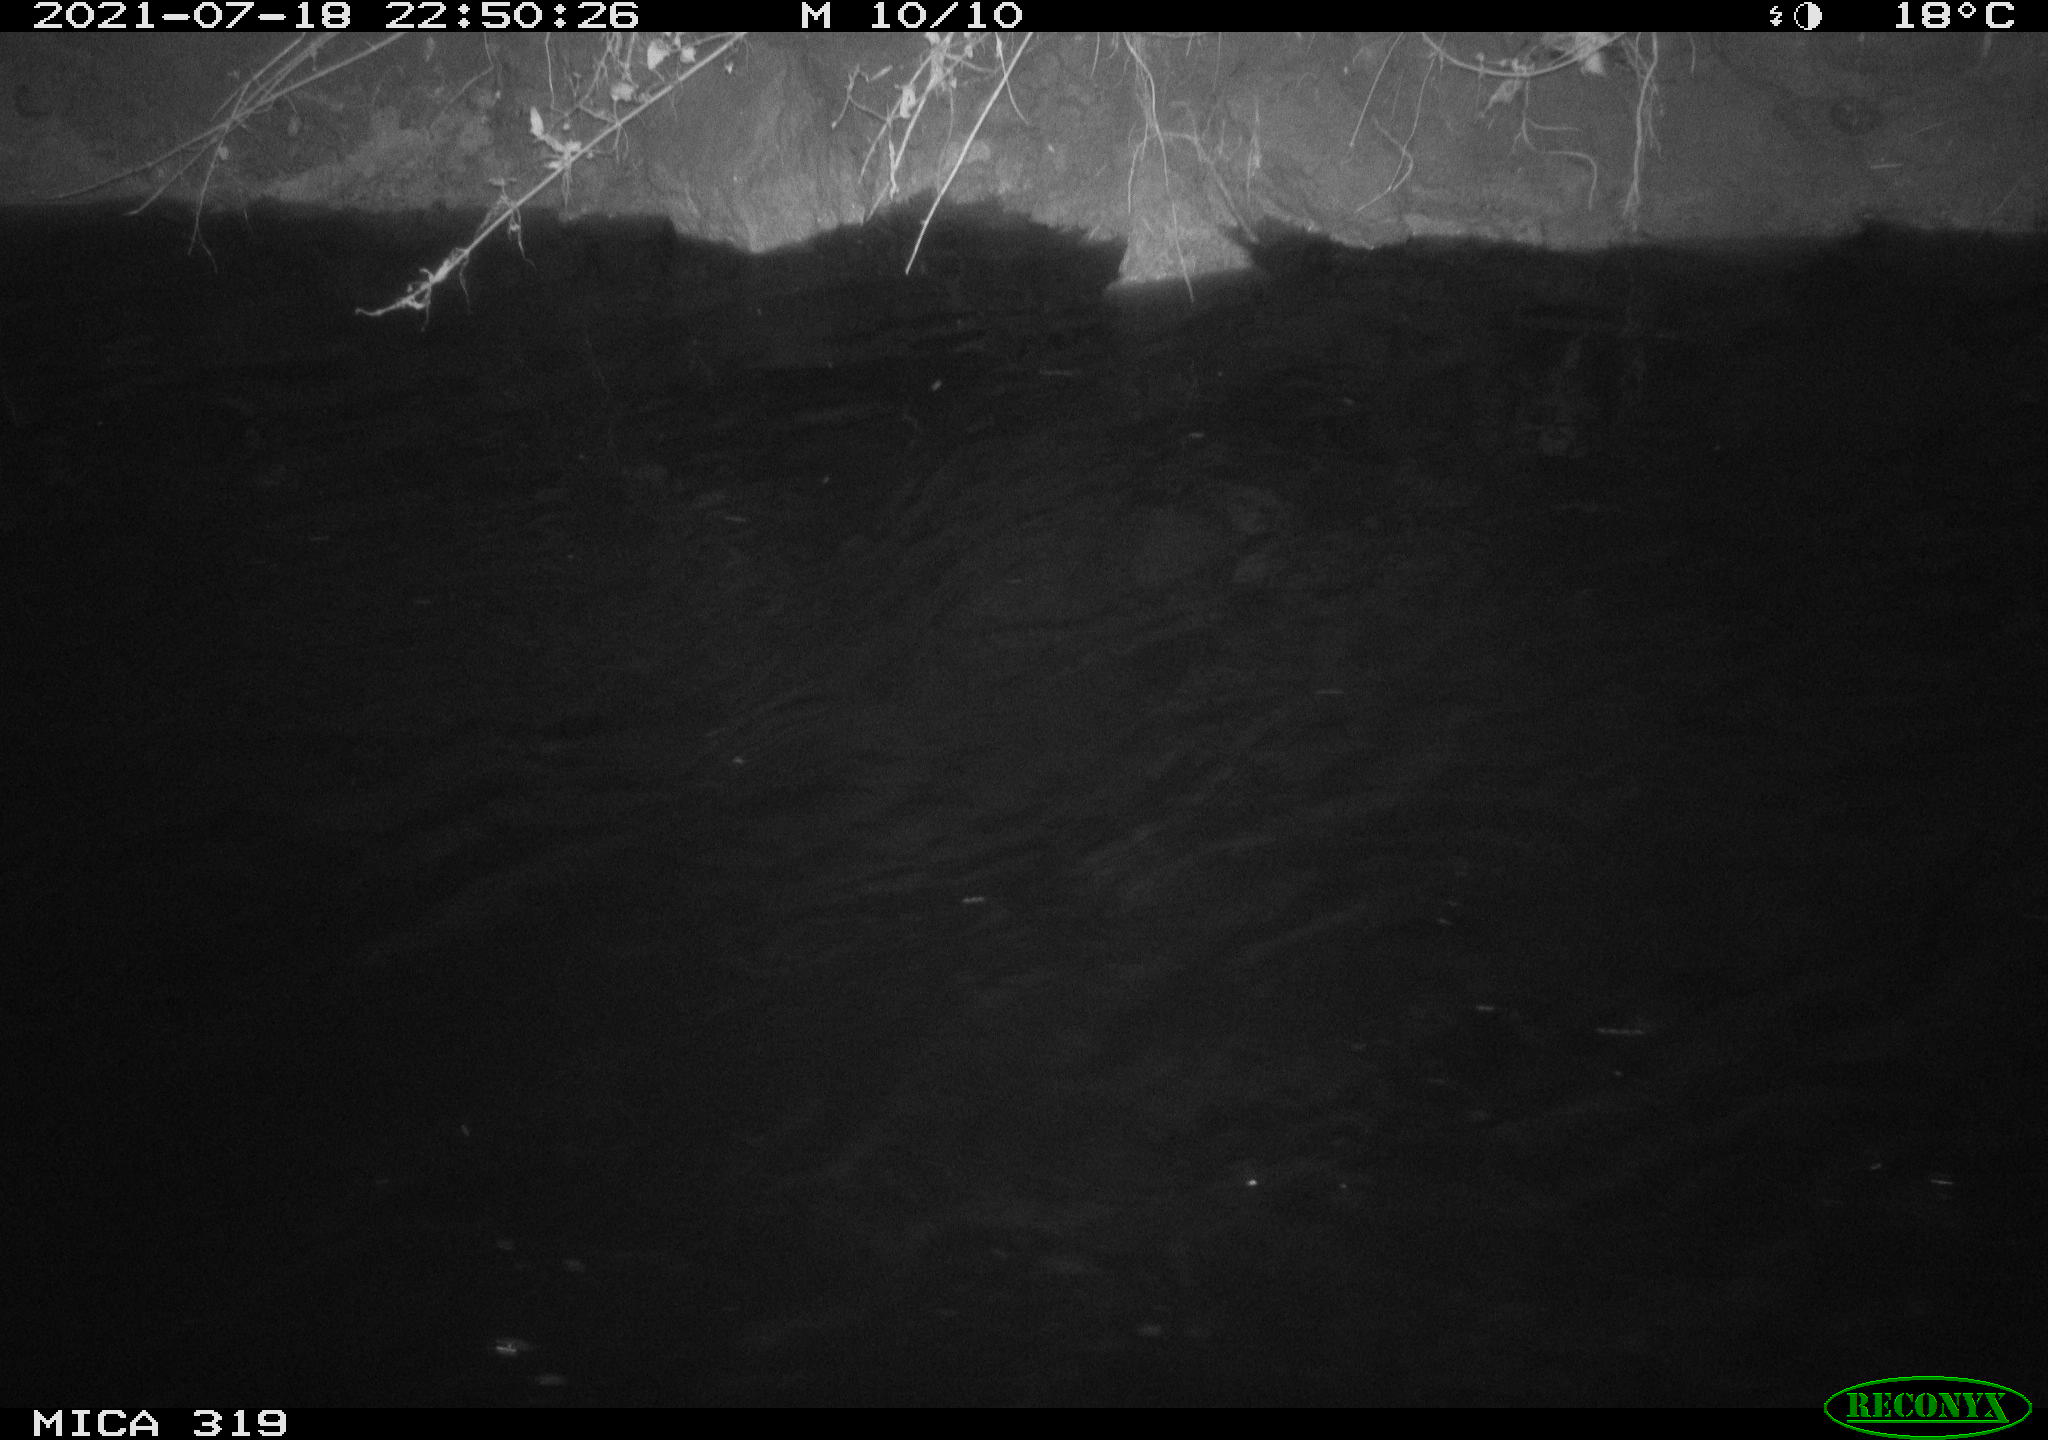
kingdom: Animalia
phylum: Chordata
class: Aves
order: Anseriformes
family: Anatidae
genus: Anas
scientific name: Anas platyrhynchos
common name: Mallard
